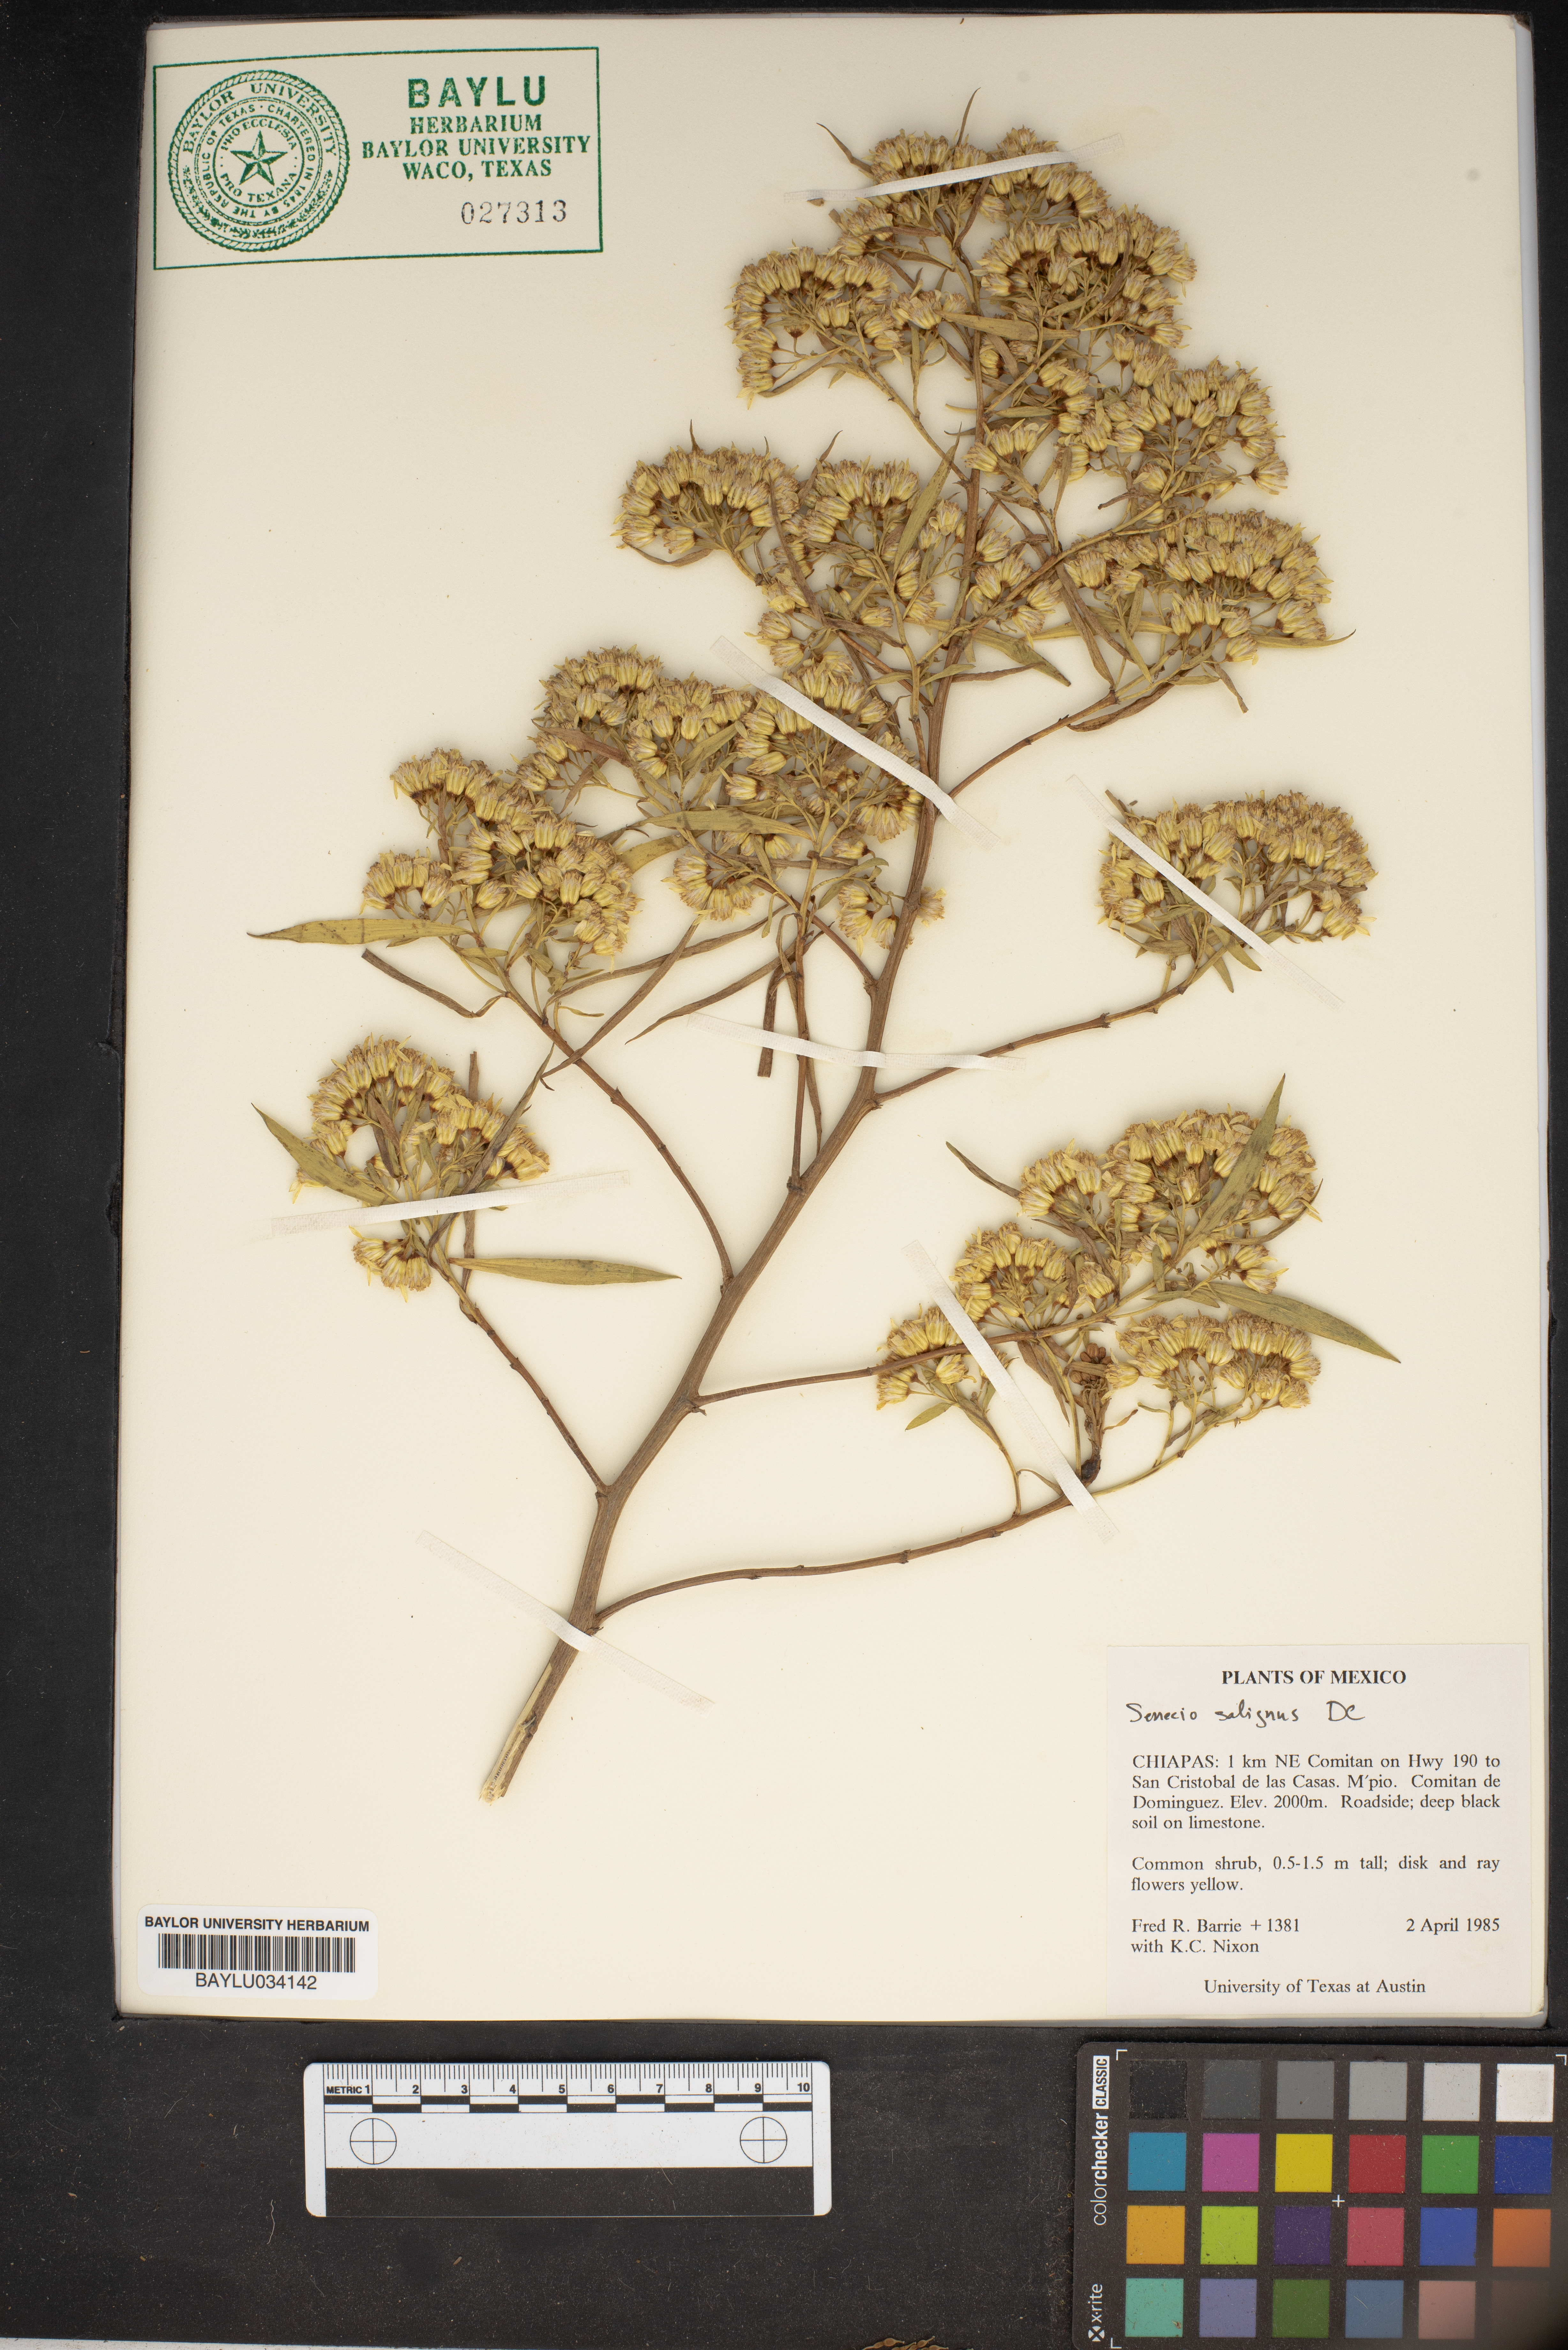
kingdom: Plantae
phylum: Tracheophyta
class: Magnoliopsida
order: Asterales
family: Asteraceae
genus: Barkleyanthus
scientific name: Barkleyanthus salicifolius
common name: Willow ragwort
